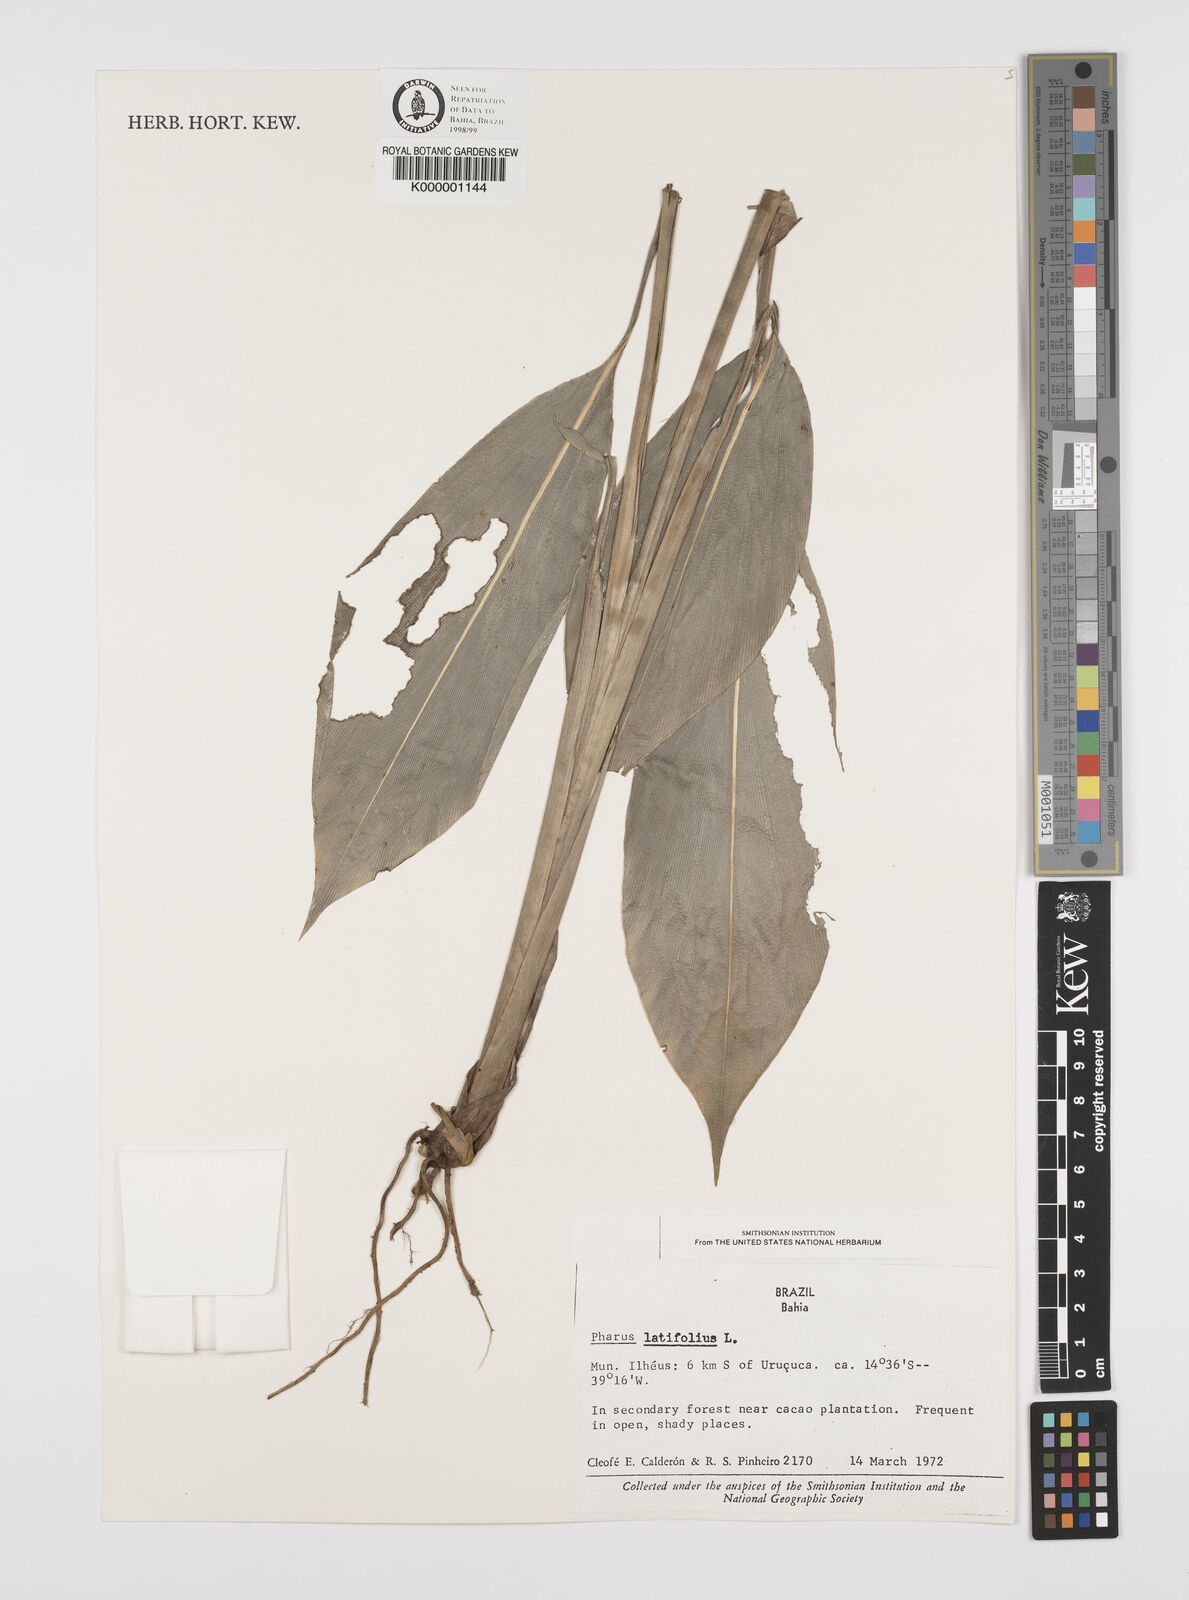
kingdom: Plantae
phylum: Tracheophyta
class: Liliopsida
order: Poales
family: Poaceae
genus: Pharus
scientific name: Pharus latifolius
